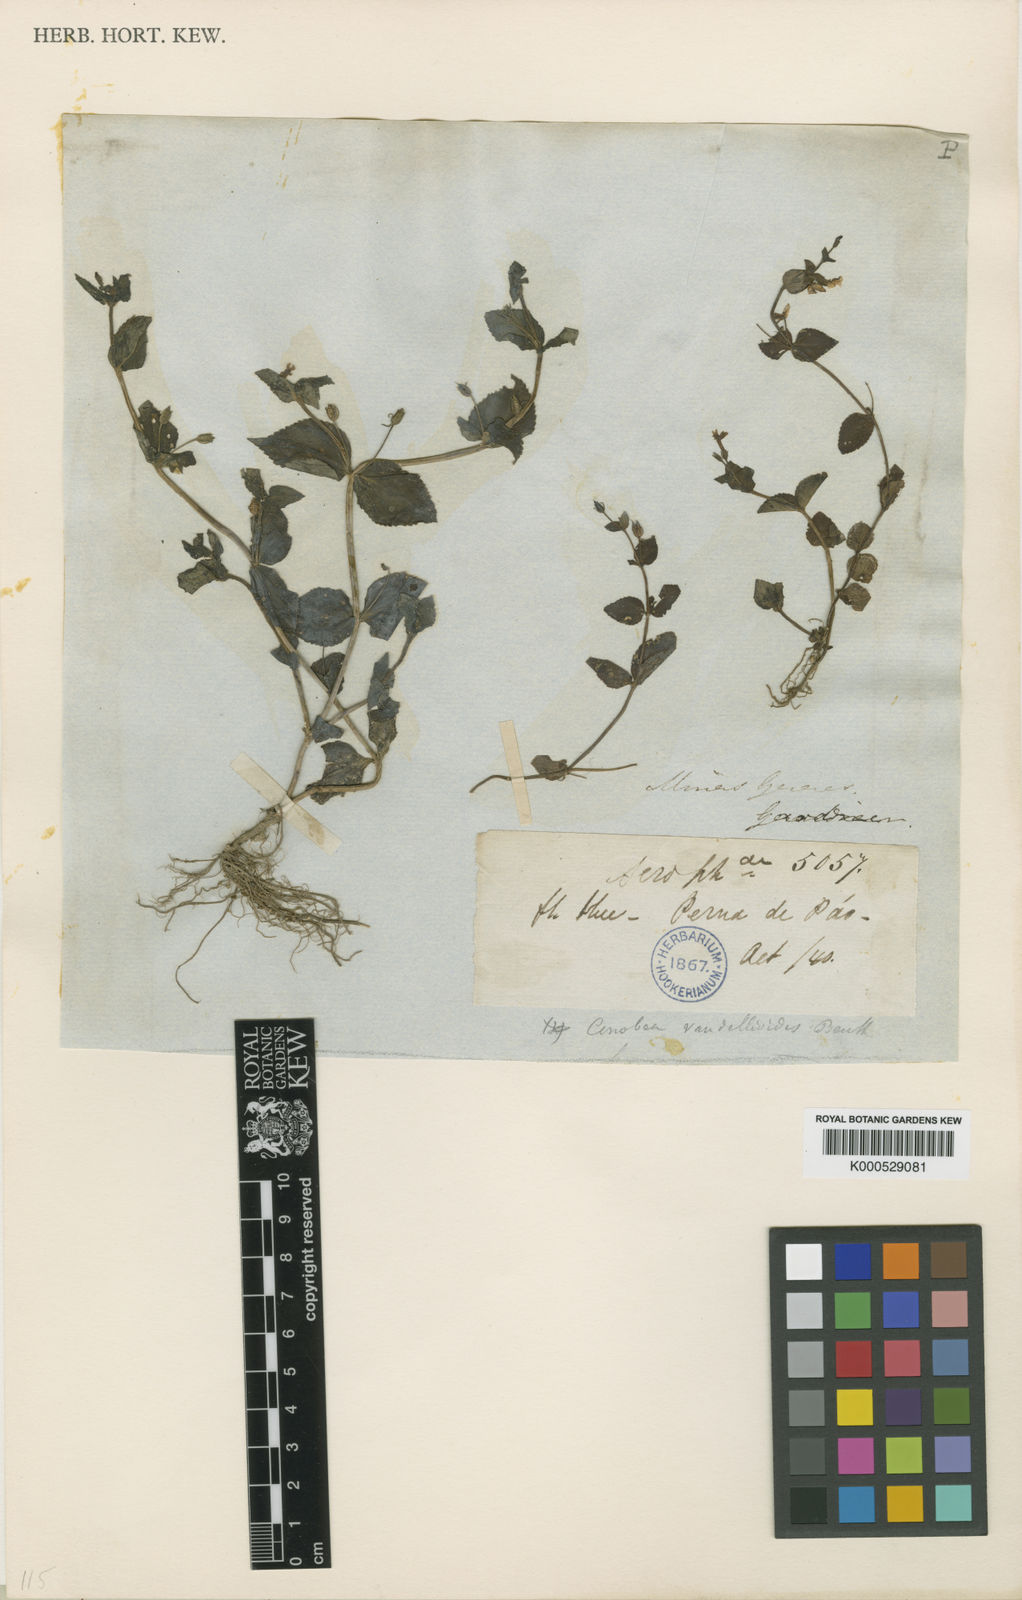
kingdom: Plantae
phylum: Tracheophyta
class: Magnoliopsida
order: Lamiales
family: Plantaginaceae
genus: Darcya
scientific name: Darcya vandellioides
